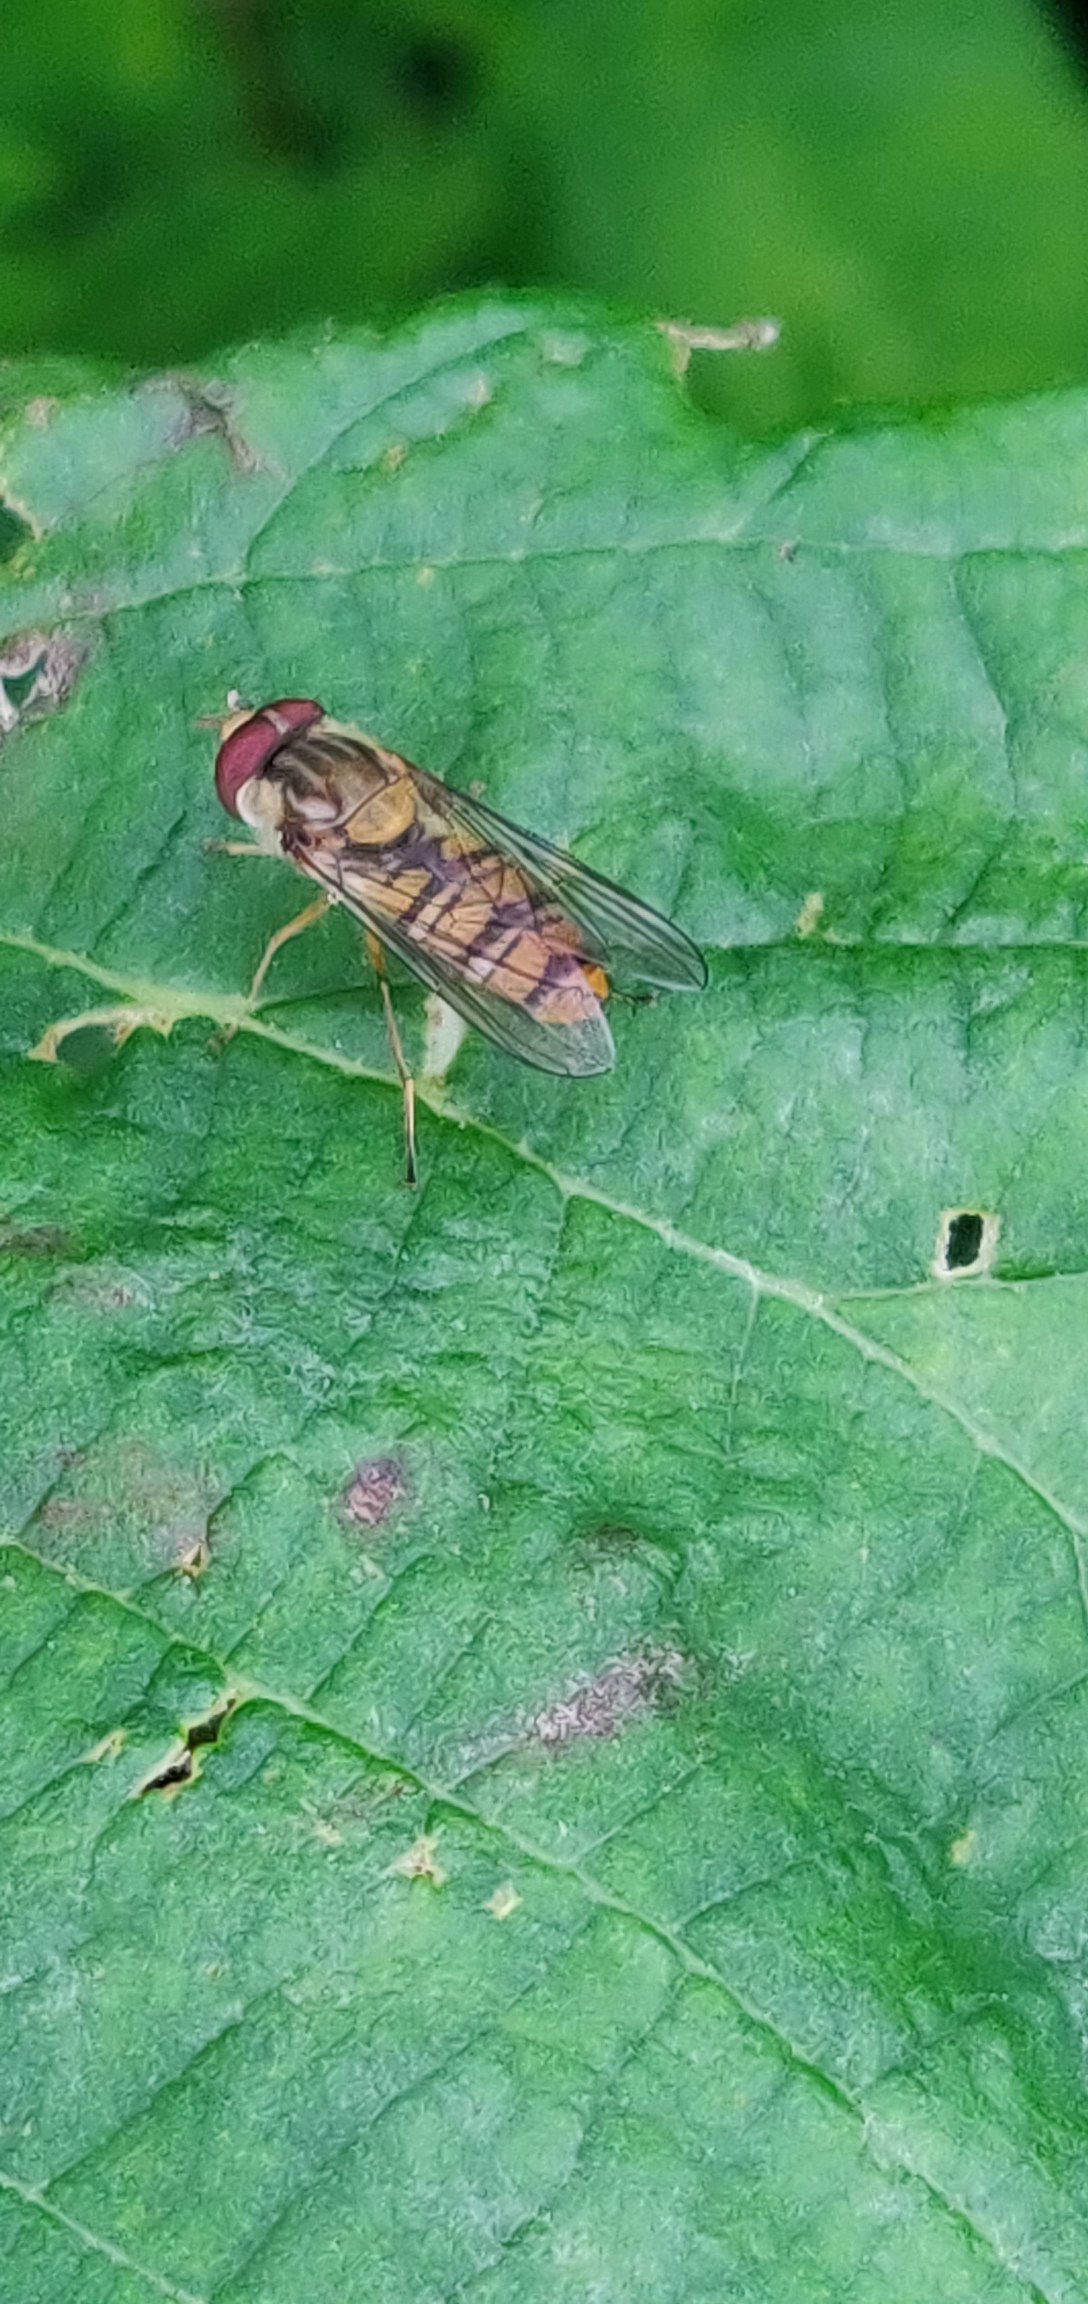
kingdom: Animalia
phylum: Arthropoda
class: Insecta
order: Diptera
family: Syrphidae
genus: Episyrphus
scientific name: Episyrphus balteatus
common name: Dobbeltbåndet svirreflue
